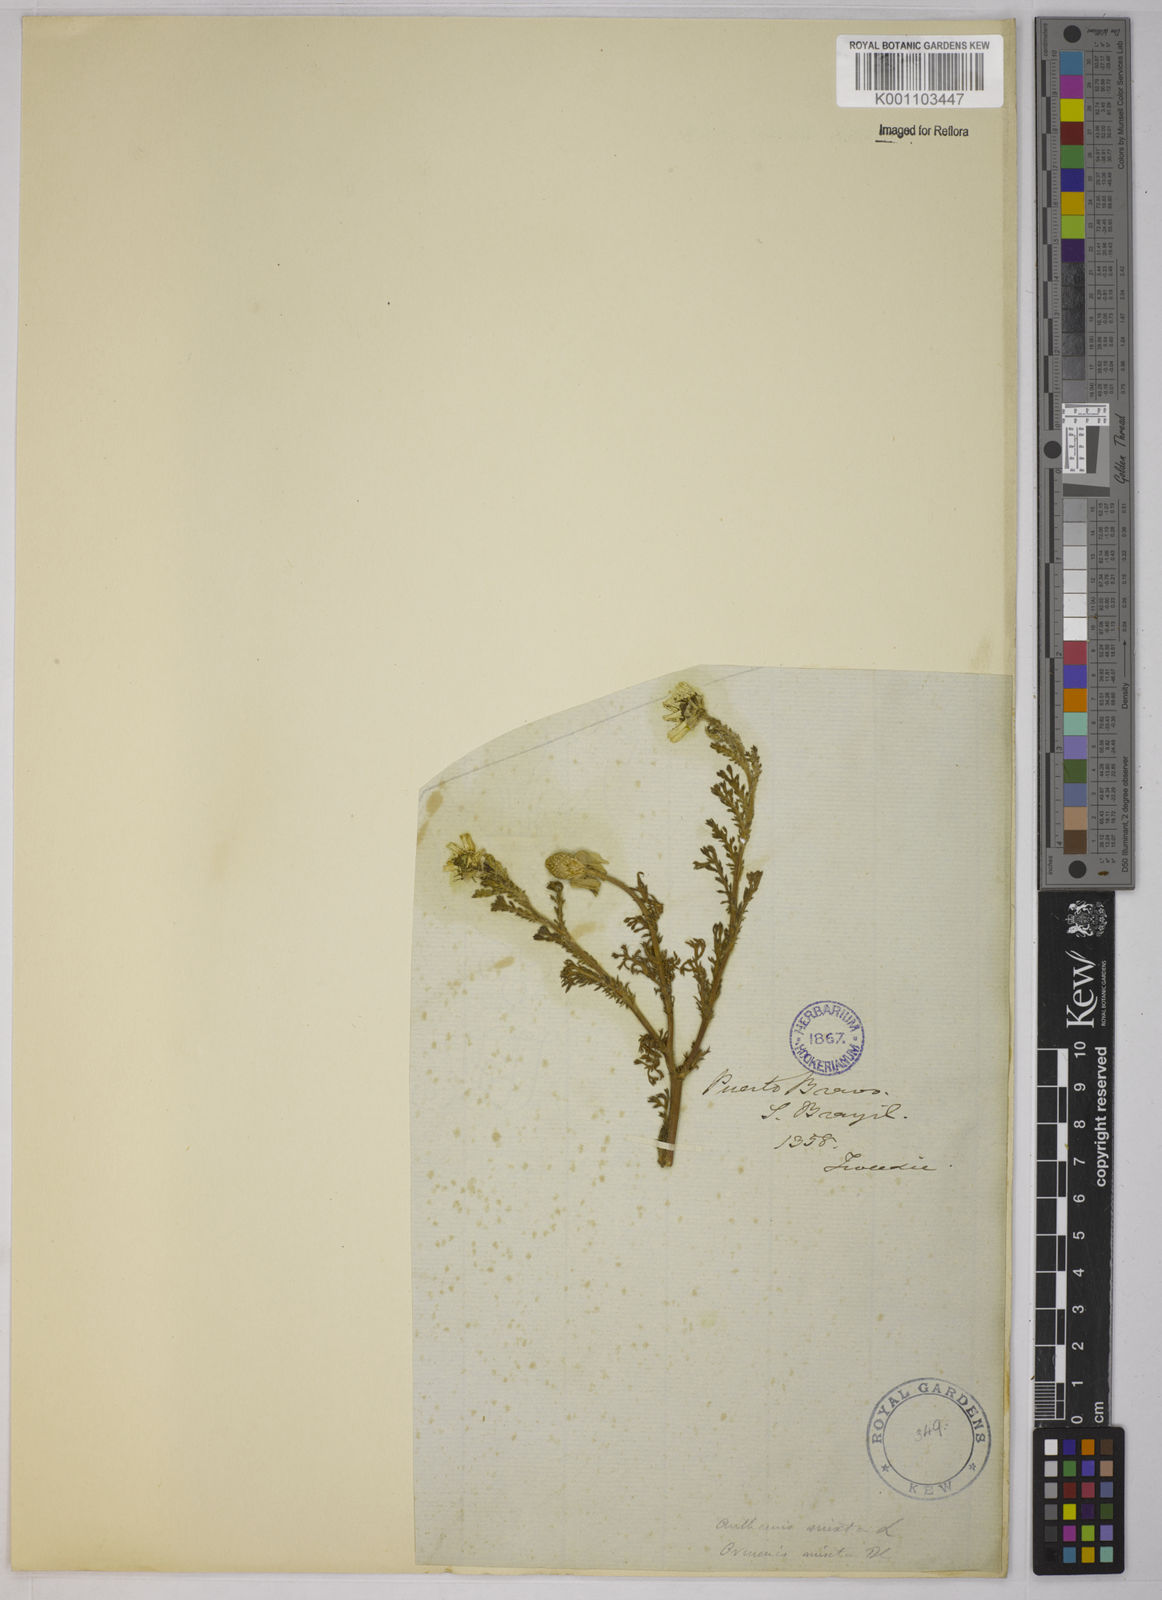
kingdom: Plantae
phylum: Tracheophyta
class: Magnoliopsida
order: Asterales
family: Asteraceae
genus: Cladanthus
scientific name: Cladanthus mixtus
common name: Weedy dogfennel
